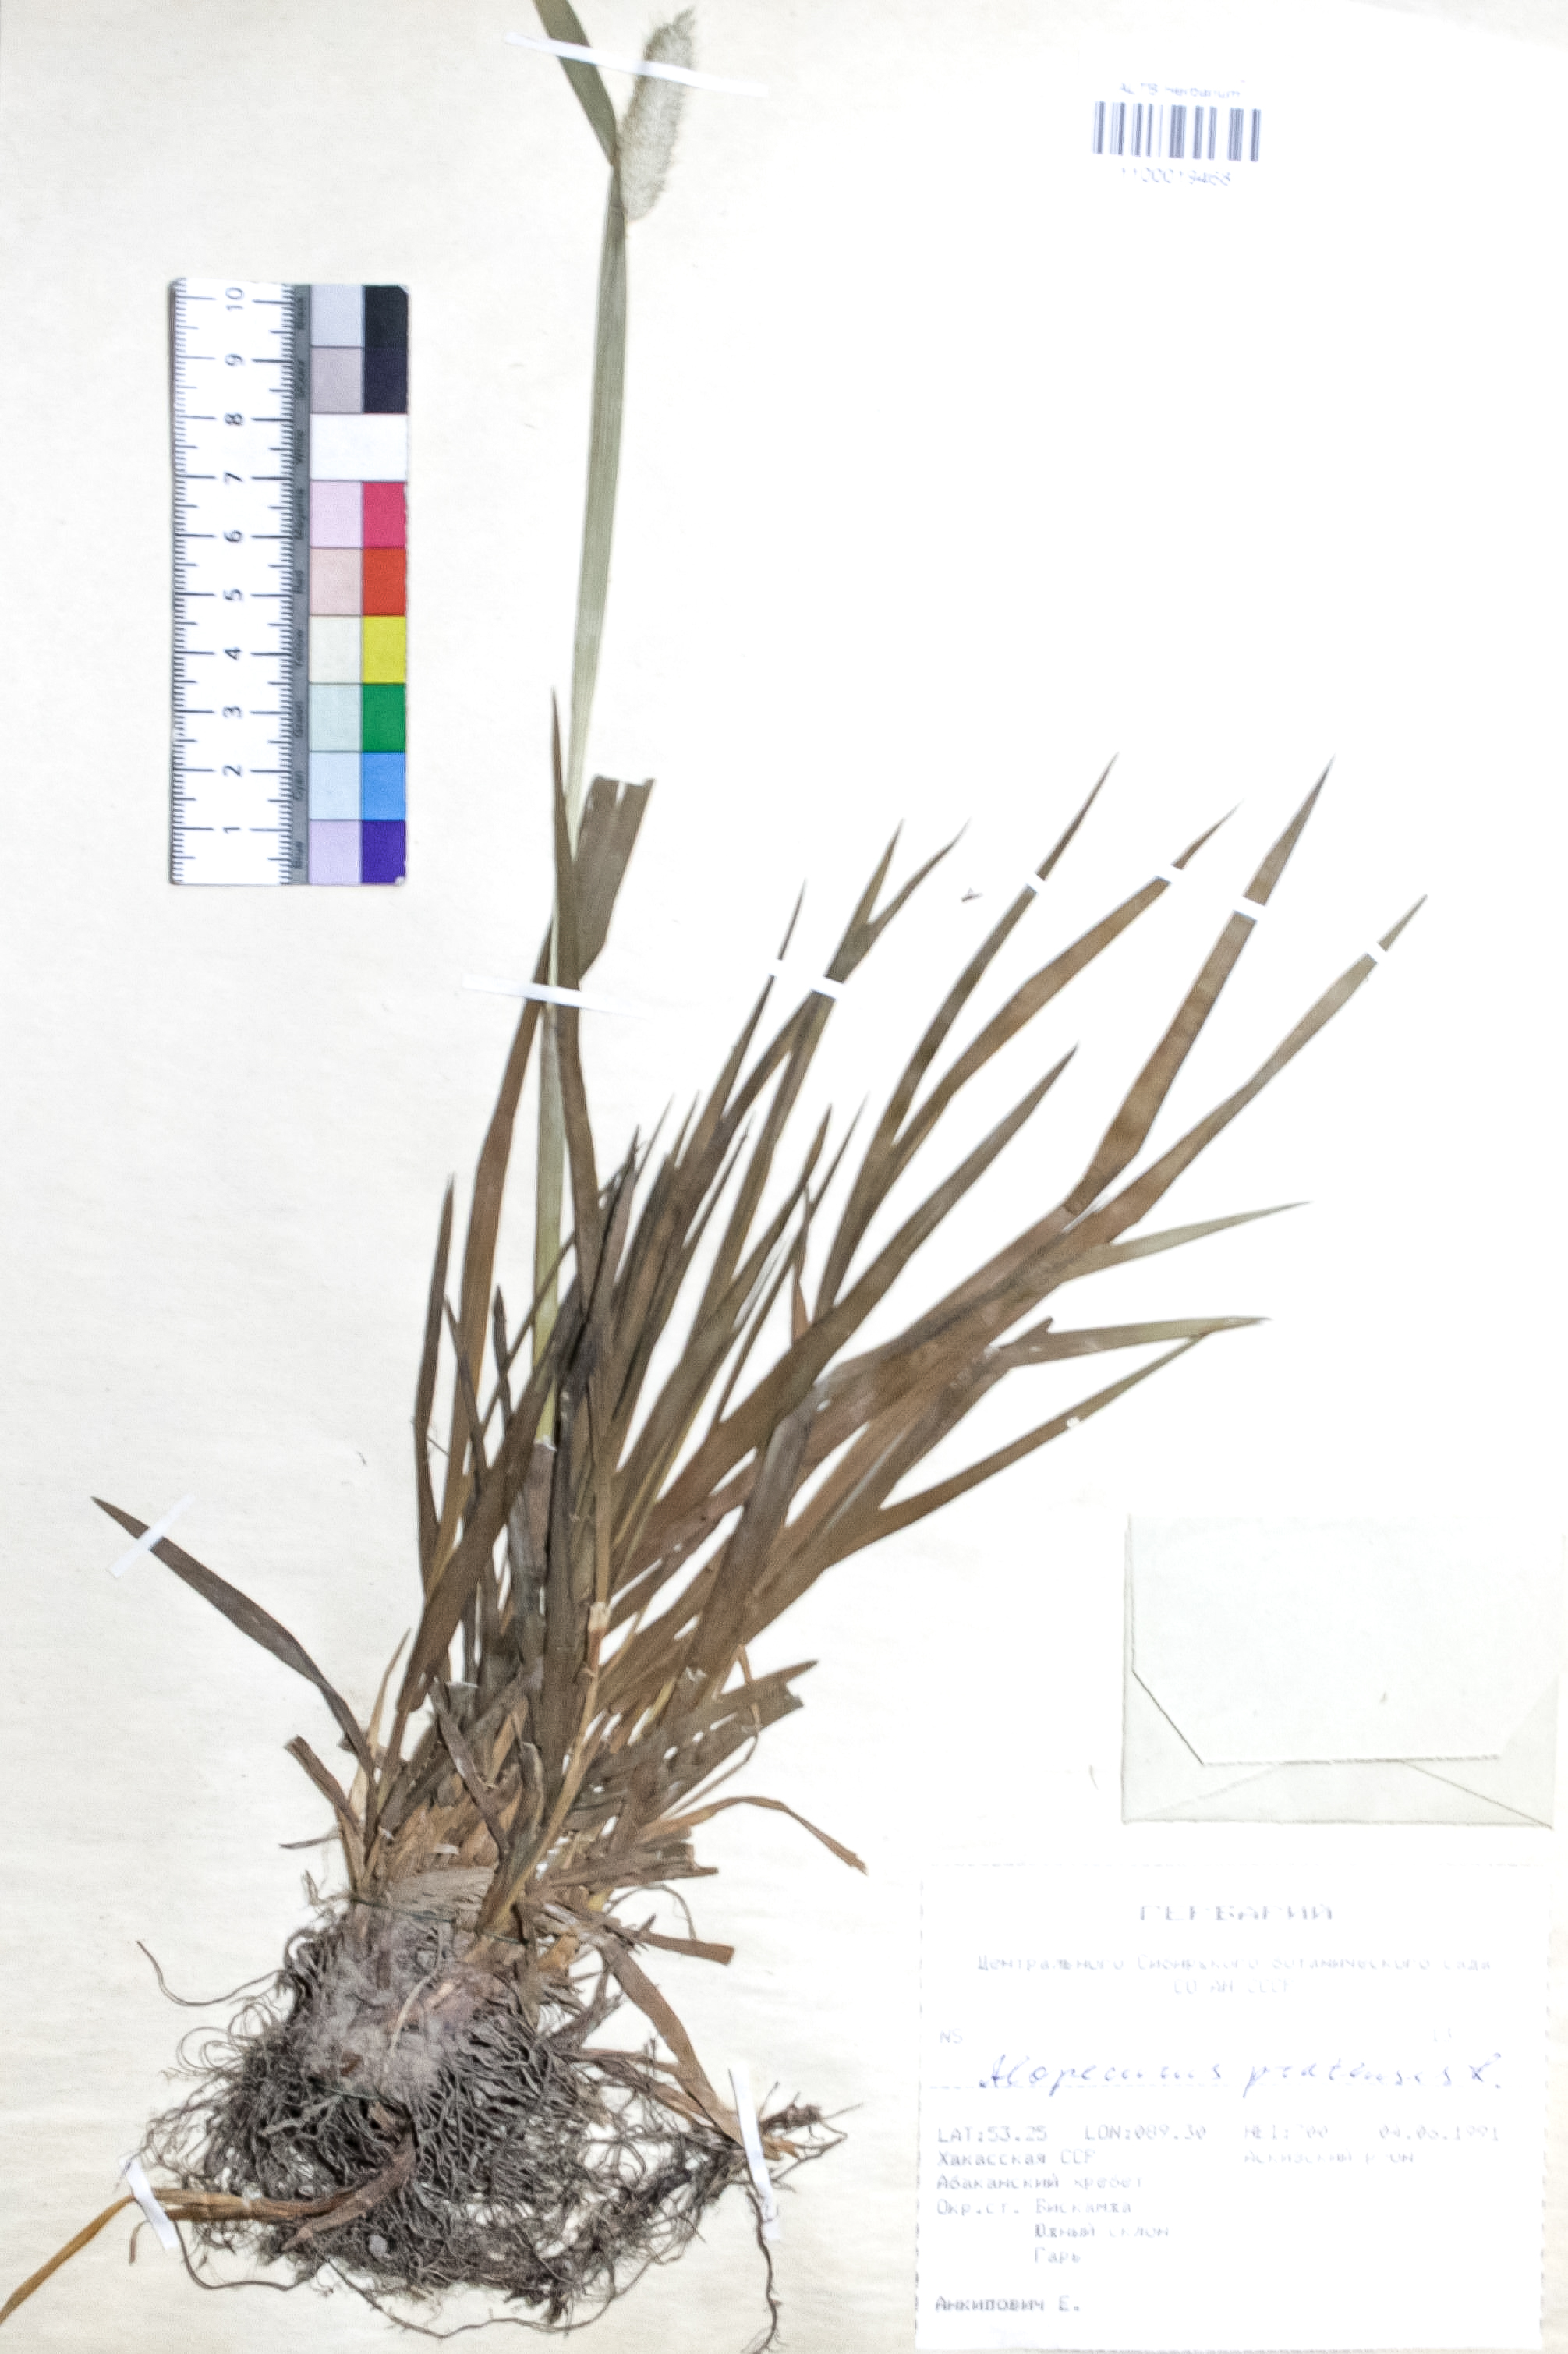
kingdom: Plantae
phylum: Tracheophyta
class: Liliopsida
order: Poales
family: Poaceae
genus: Alopecurus
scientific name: Alopecurus pratensis
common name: Meadow foxtail
